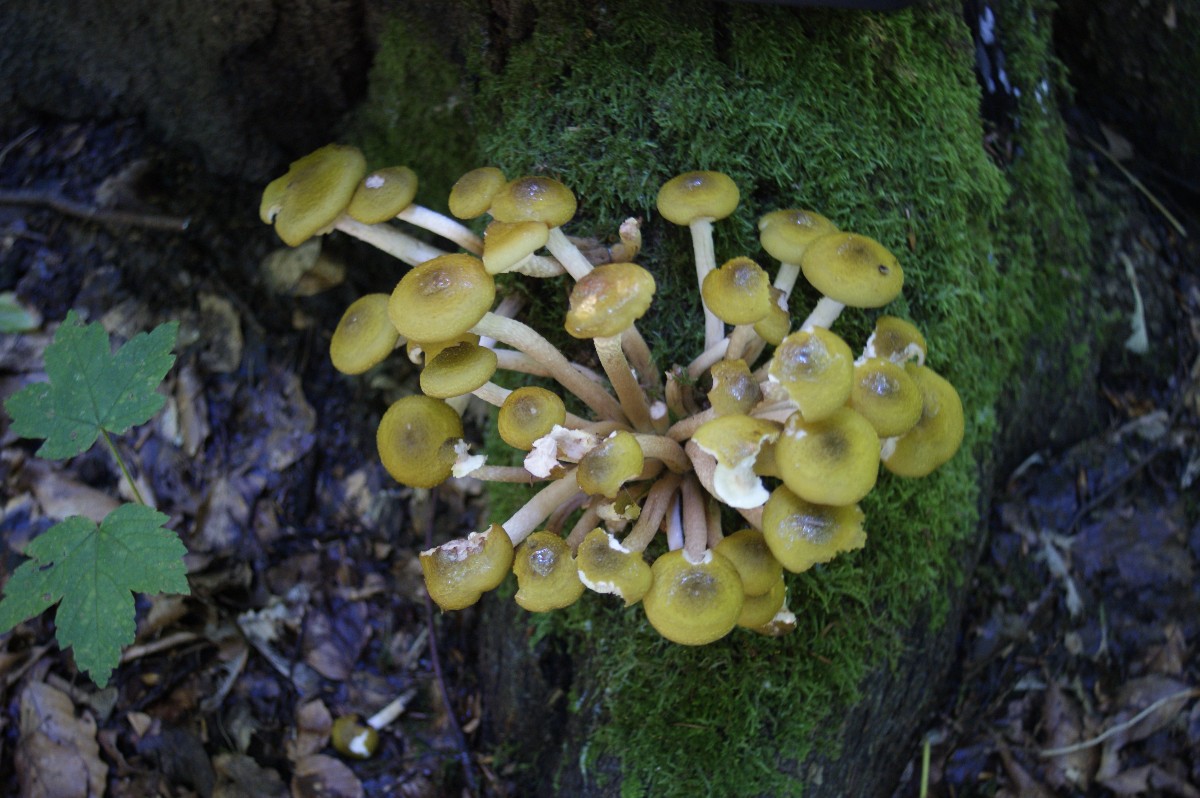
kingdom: Fungi
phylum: Basidiomycota
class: Agaricomycetes
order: Agaricales
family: Physalacriaceae
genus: Armillaria
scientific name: Armillaria mellea
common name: ægte honningsvamp
